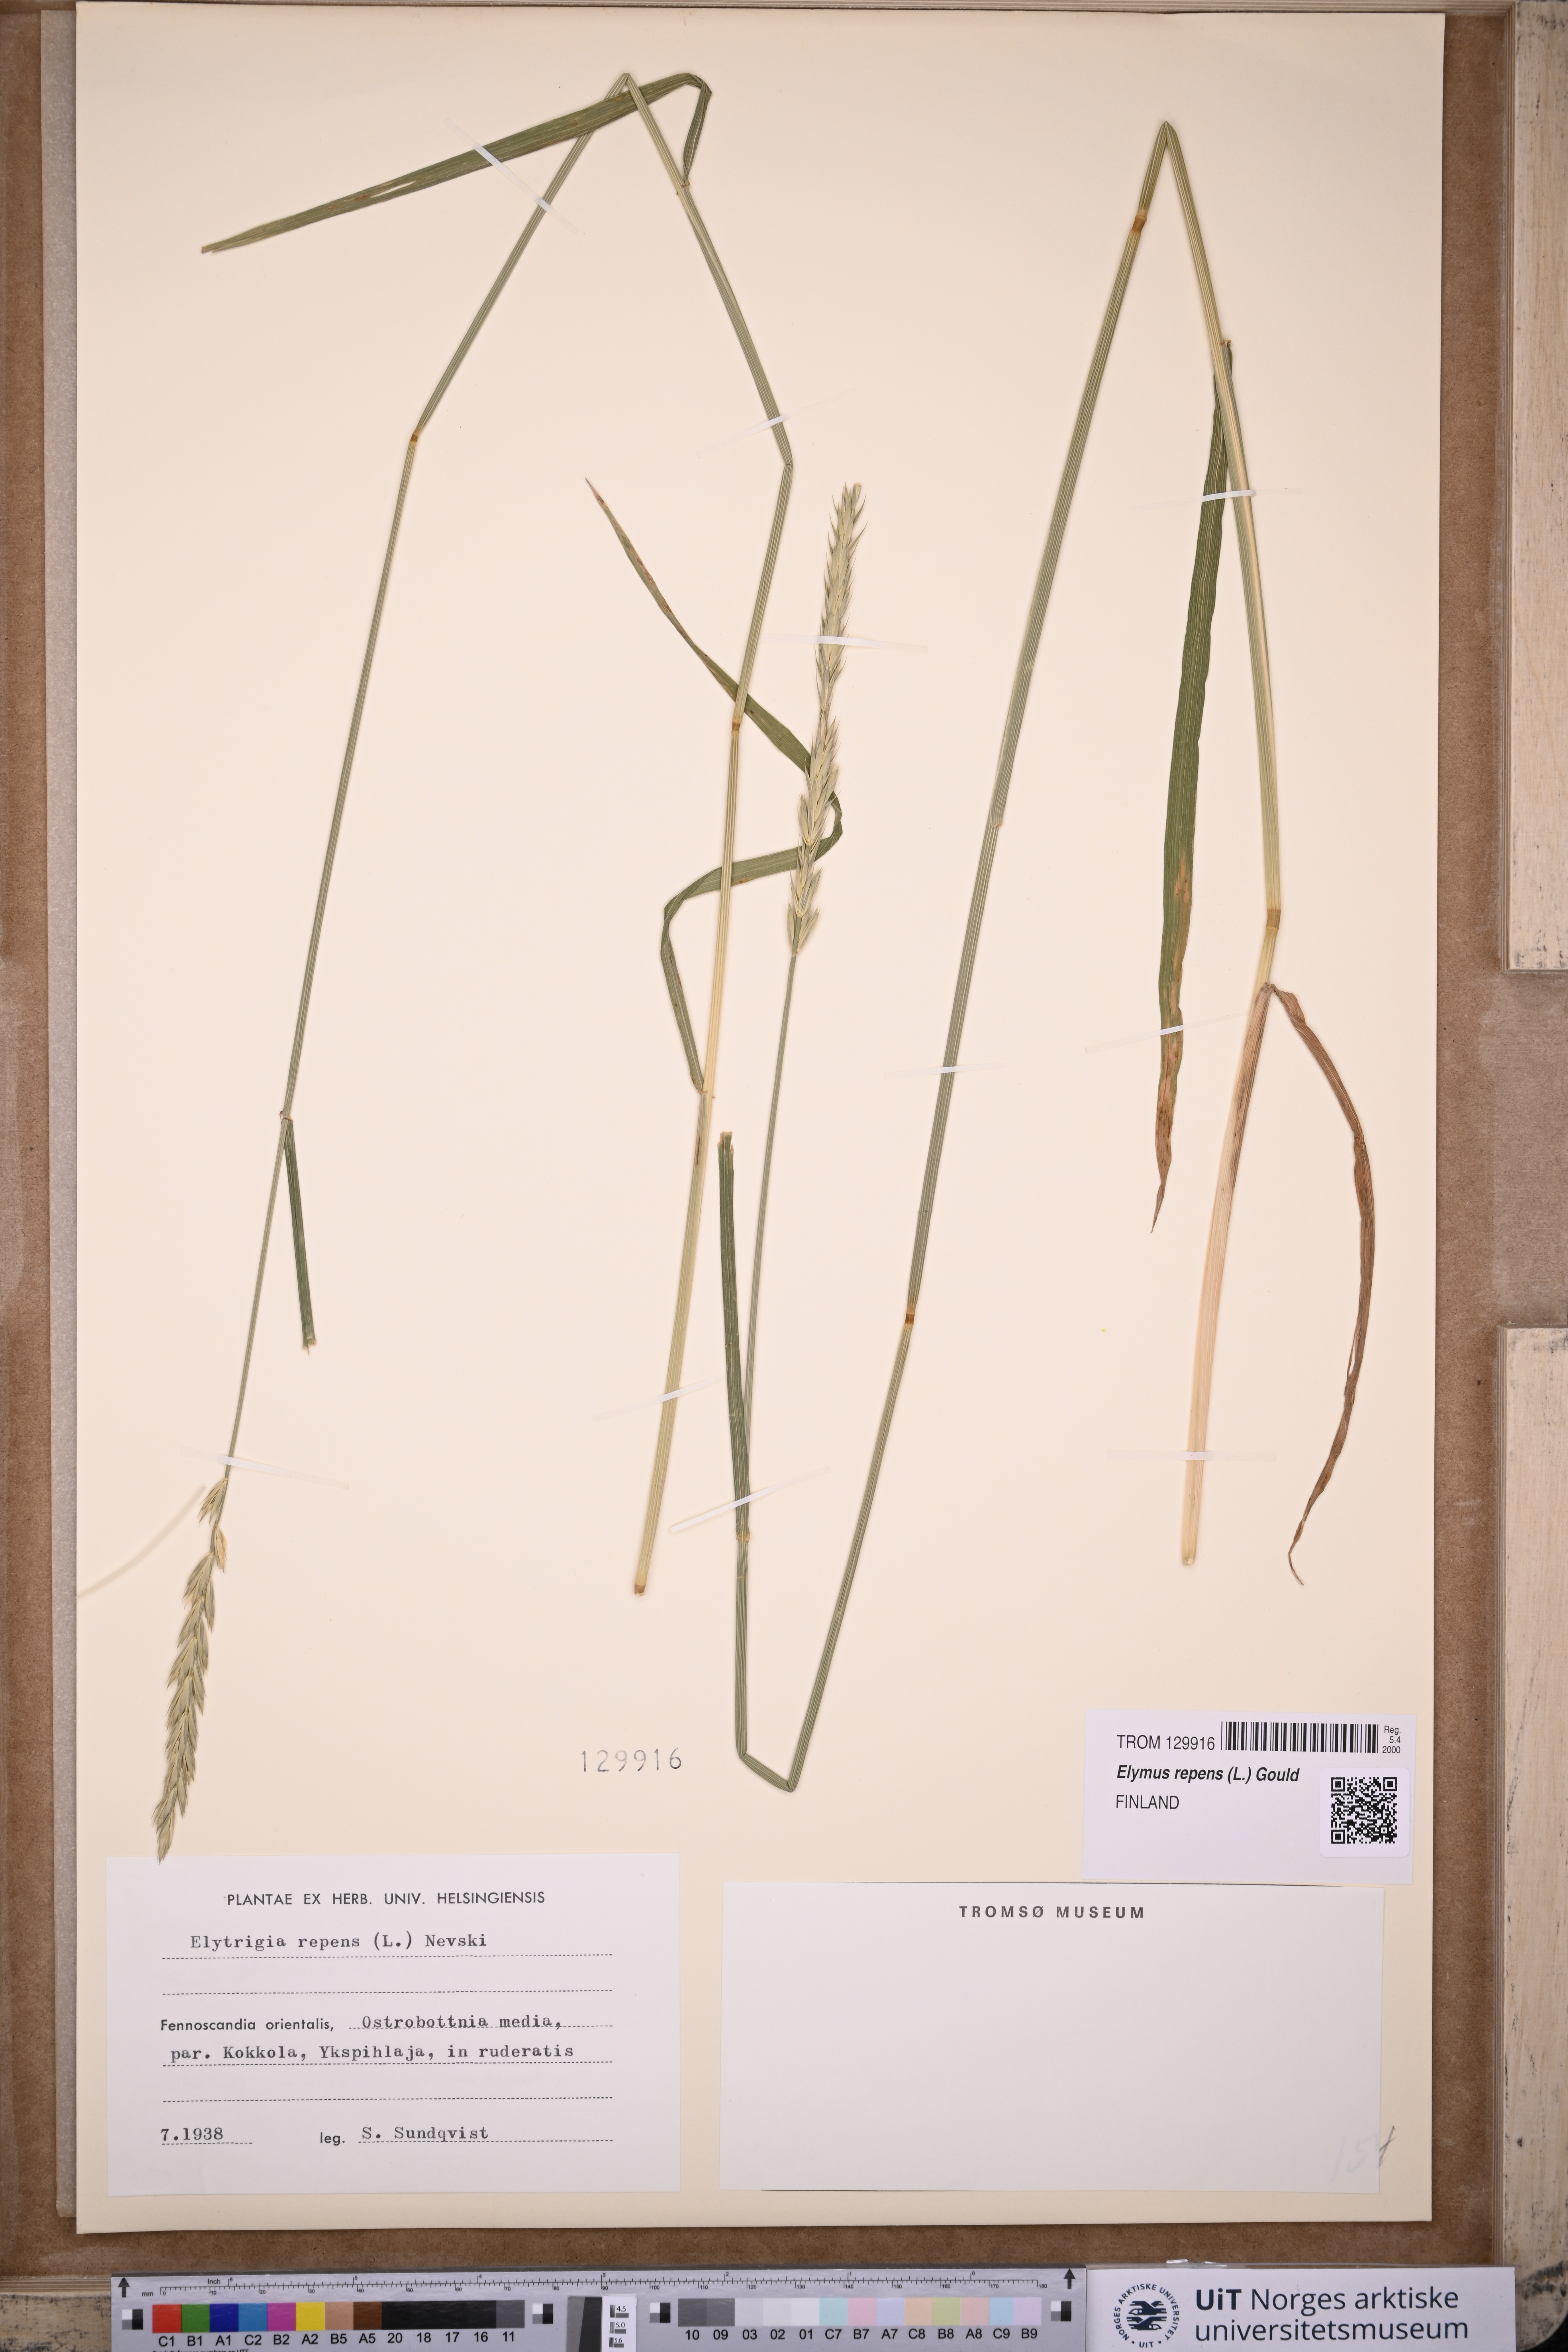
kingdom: Plantae
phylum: Tracheophyta
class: Liliopsida
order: Poales
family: Poaceae
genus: Elymus
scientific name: Elymus repens
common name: Quackgrass
